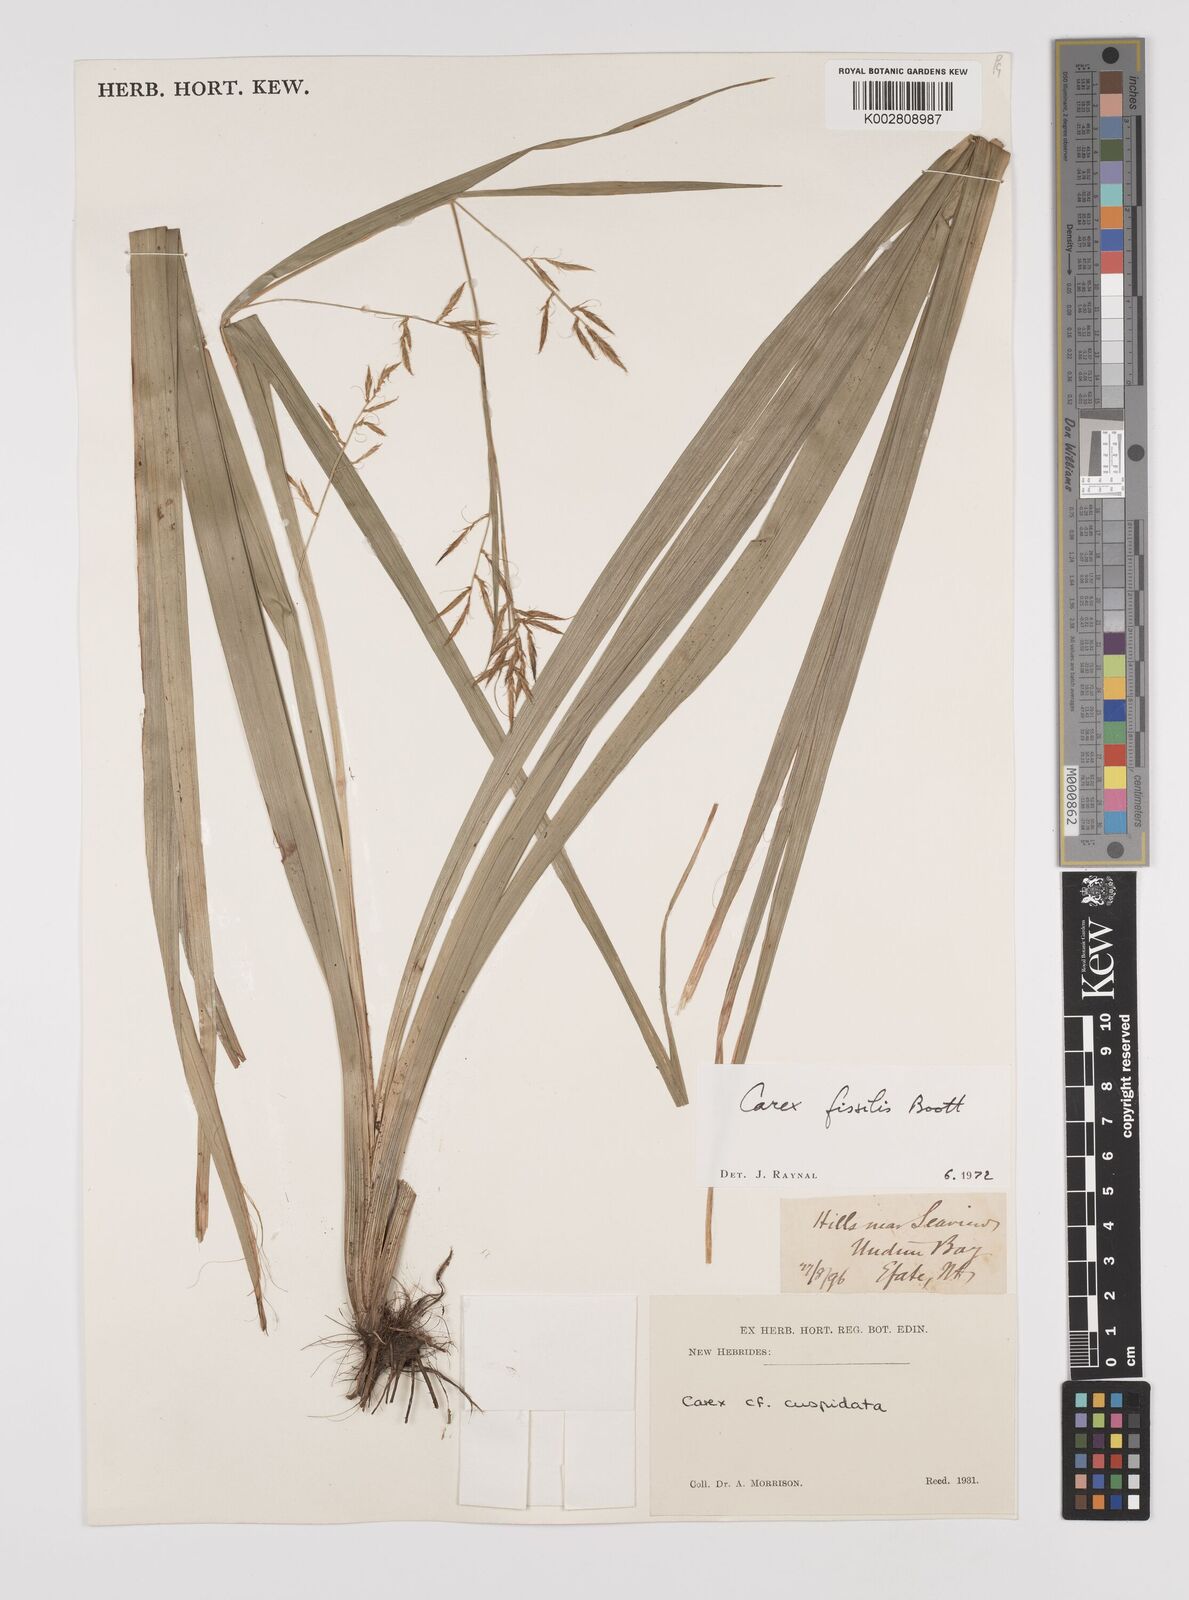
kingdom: Plantae
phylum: Tracheophyta
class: Liliopsida
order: Poales
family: Cyperaceae
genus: Carex
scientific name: Carex indica
